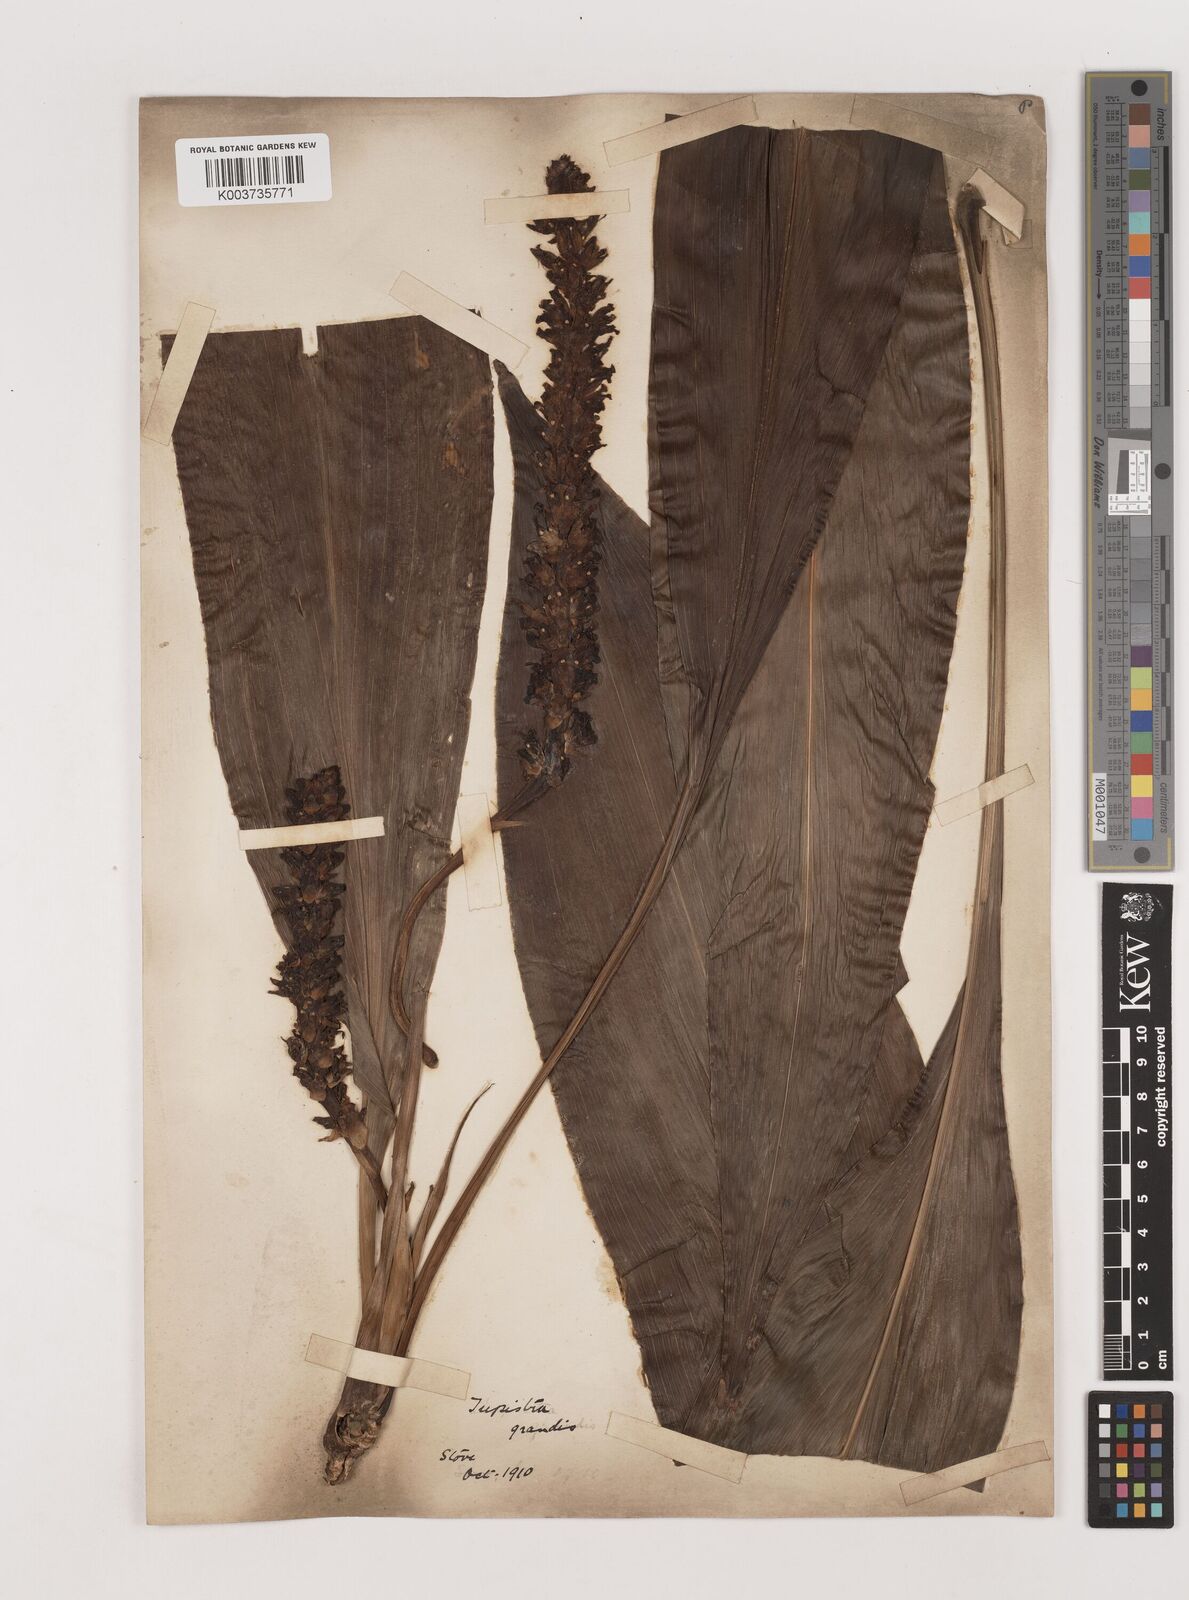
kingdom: Plantae
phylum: Tracheophyta
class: Liliopsida
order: Asparagales
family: Asparagaceae
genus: Tupistra
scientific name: Tupistra grandis
